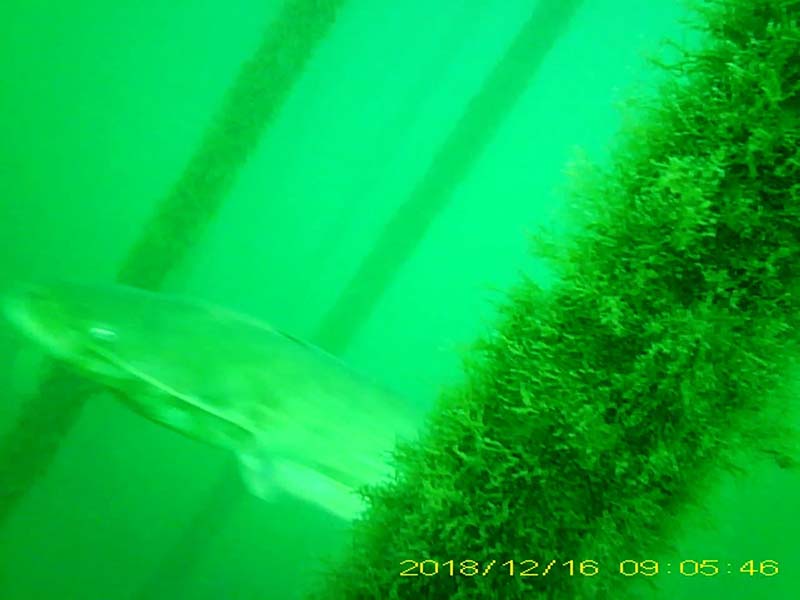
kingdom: Animalia
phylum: Chordata
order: Siluriformes
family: Siluridae
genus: Silurus
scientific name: Silurus
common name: ナマズ
